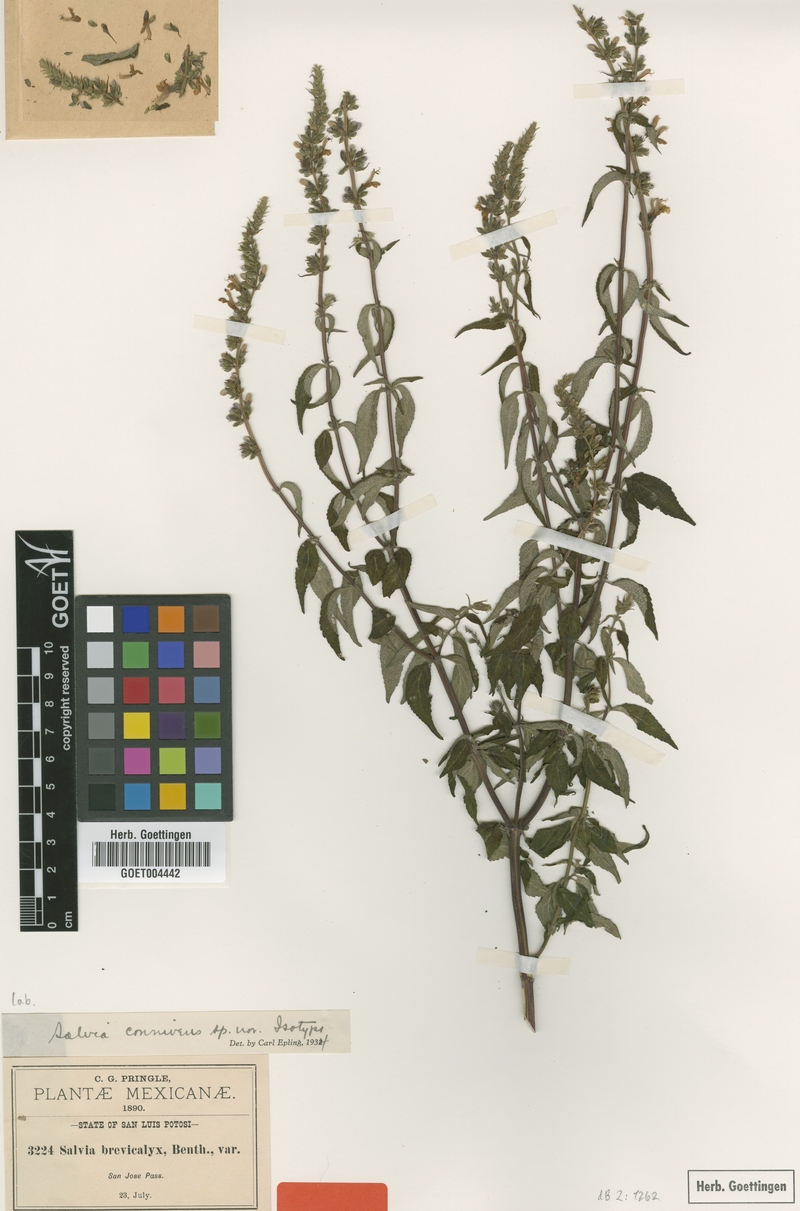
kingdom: Plantae
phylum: Tracheophyta
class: Magnoliopsida
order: Lamiales
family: Lamiaceae
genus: Salvia
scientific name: Salvia connivens
